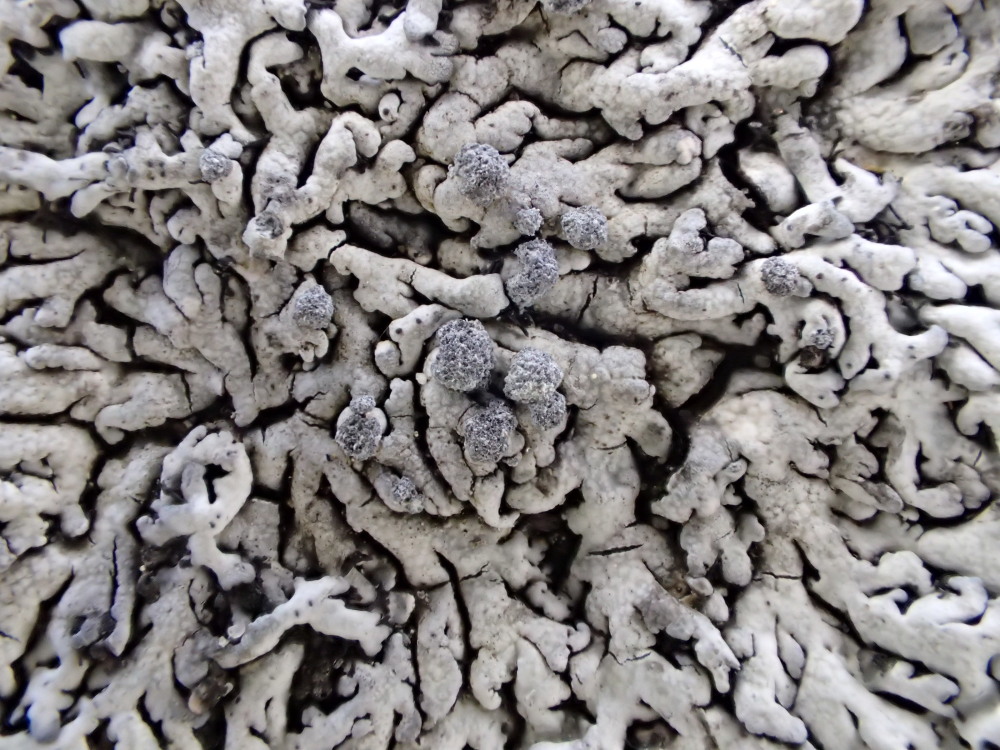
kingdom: Fungi
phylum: Ascomycota
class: Lecanoromycetes
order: Caliciales
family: Physciaceae
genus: Physcia
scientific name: Physcia caesia
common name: blågrå rosetlav
